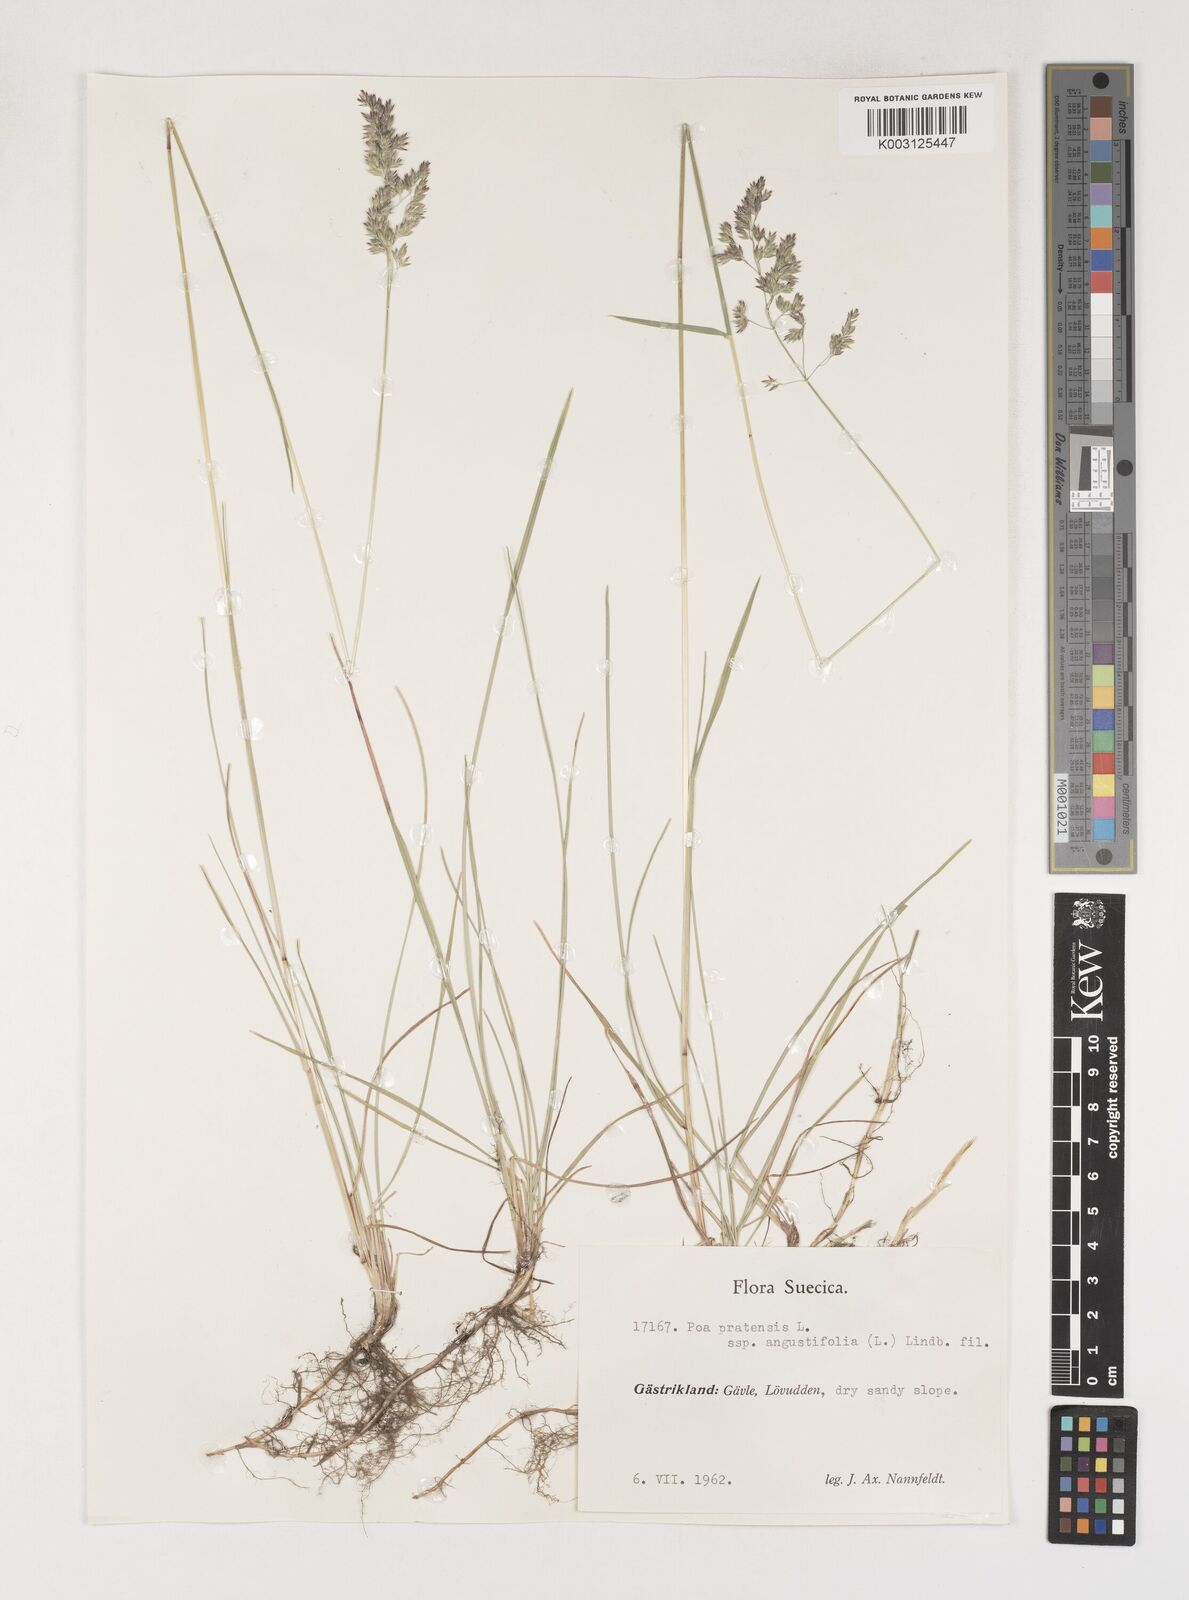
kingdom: Plantae
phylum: Tracheophyta
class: Liliopsida
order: Poales
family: Poaceae
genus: Poa
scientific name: Poa pratensis
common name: Kentucky bluegrass
